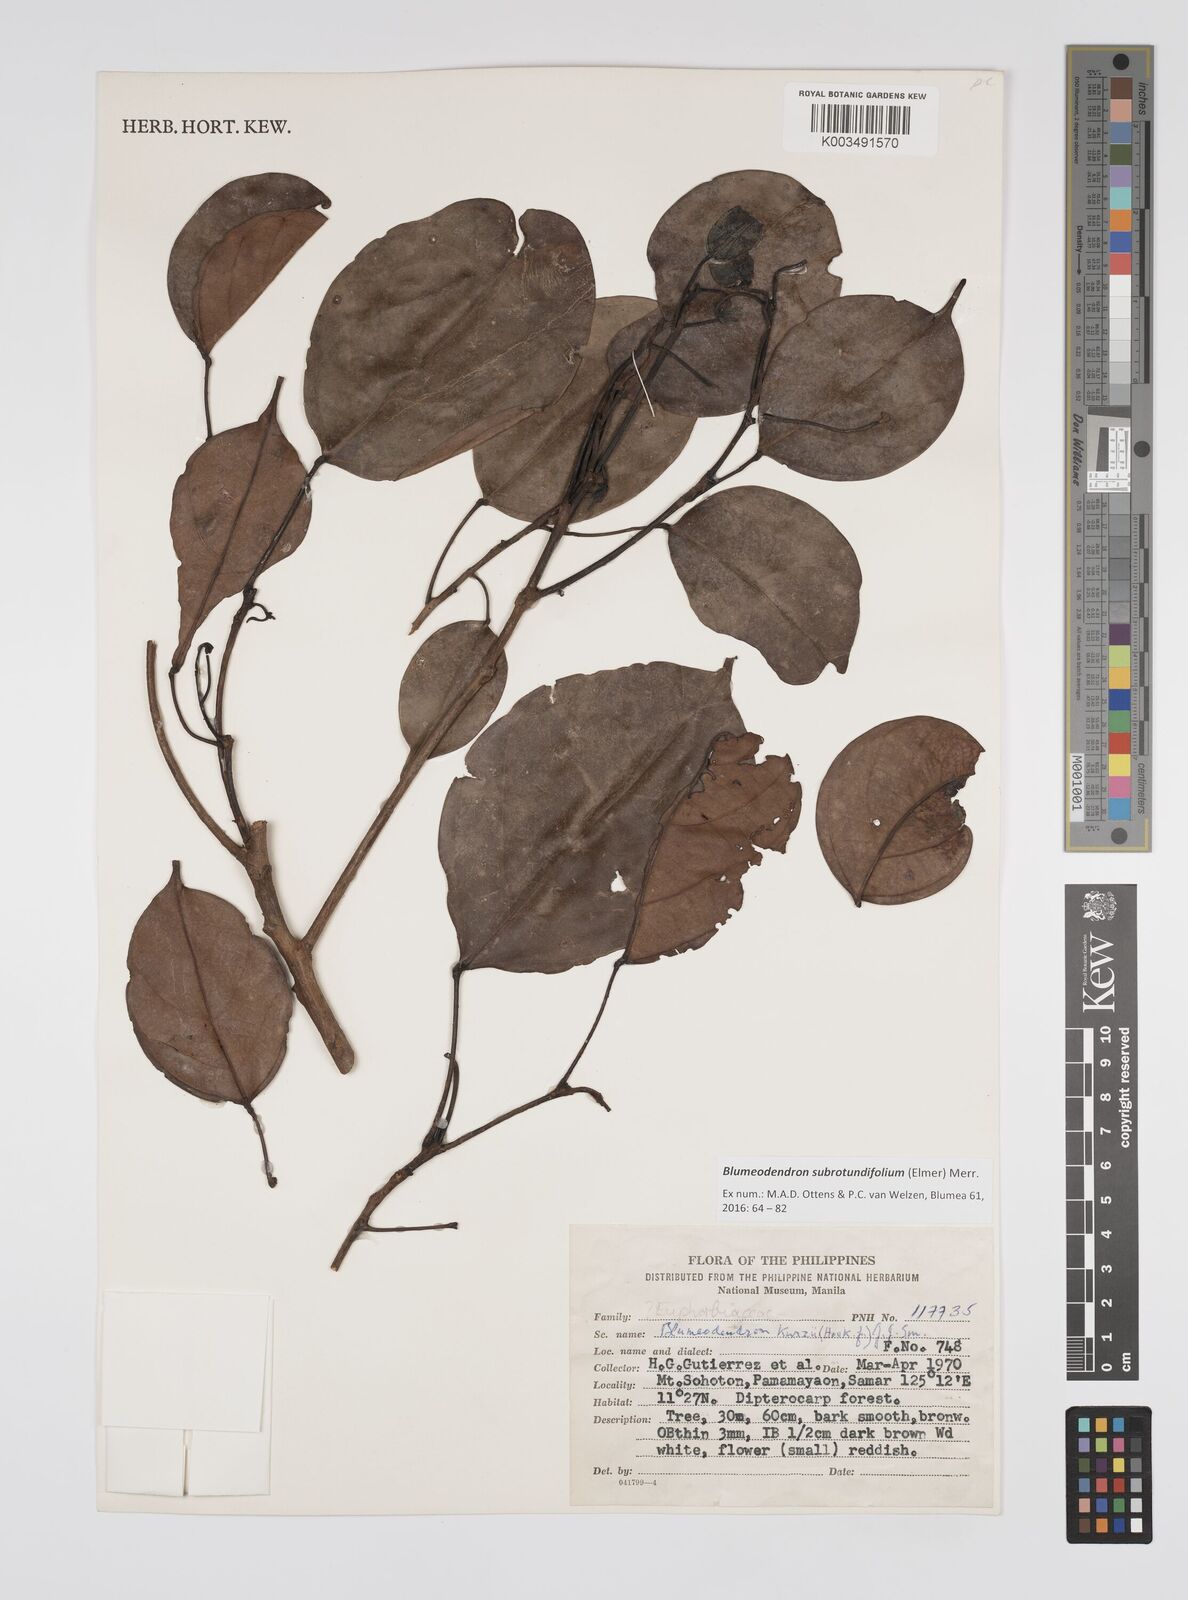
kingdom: Plantae
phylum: Tracheophyta
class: Magnoliopsida
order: Malpighiales
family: Euphorbiaceae
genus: Blumeodendron
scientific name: Blumeodendron subrotundifolium
